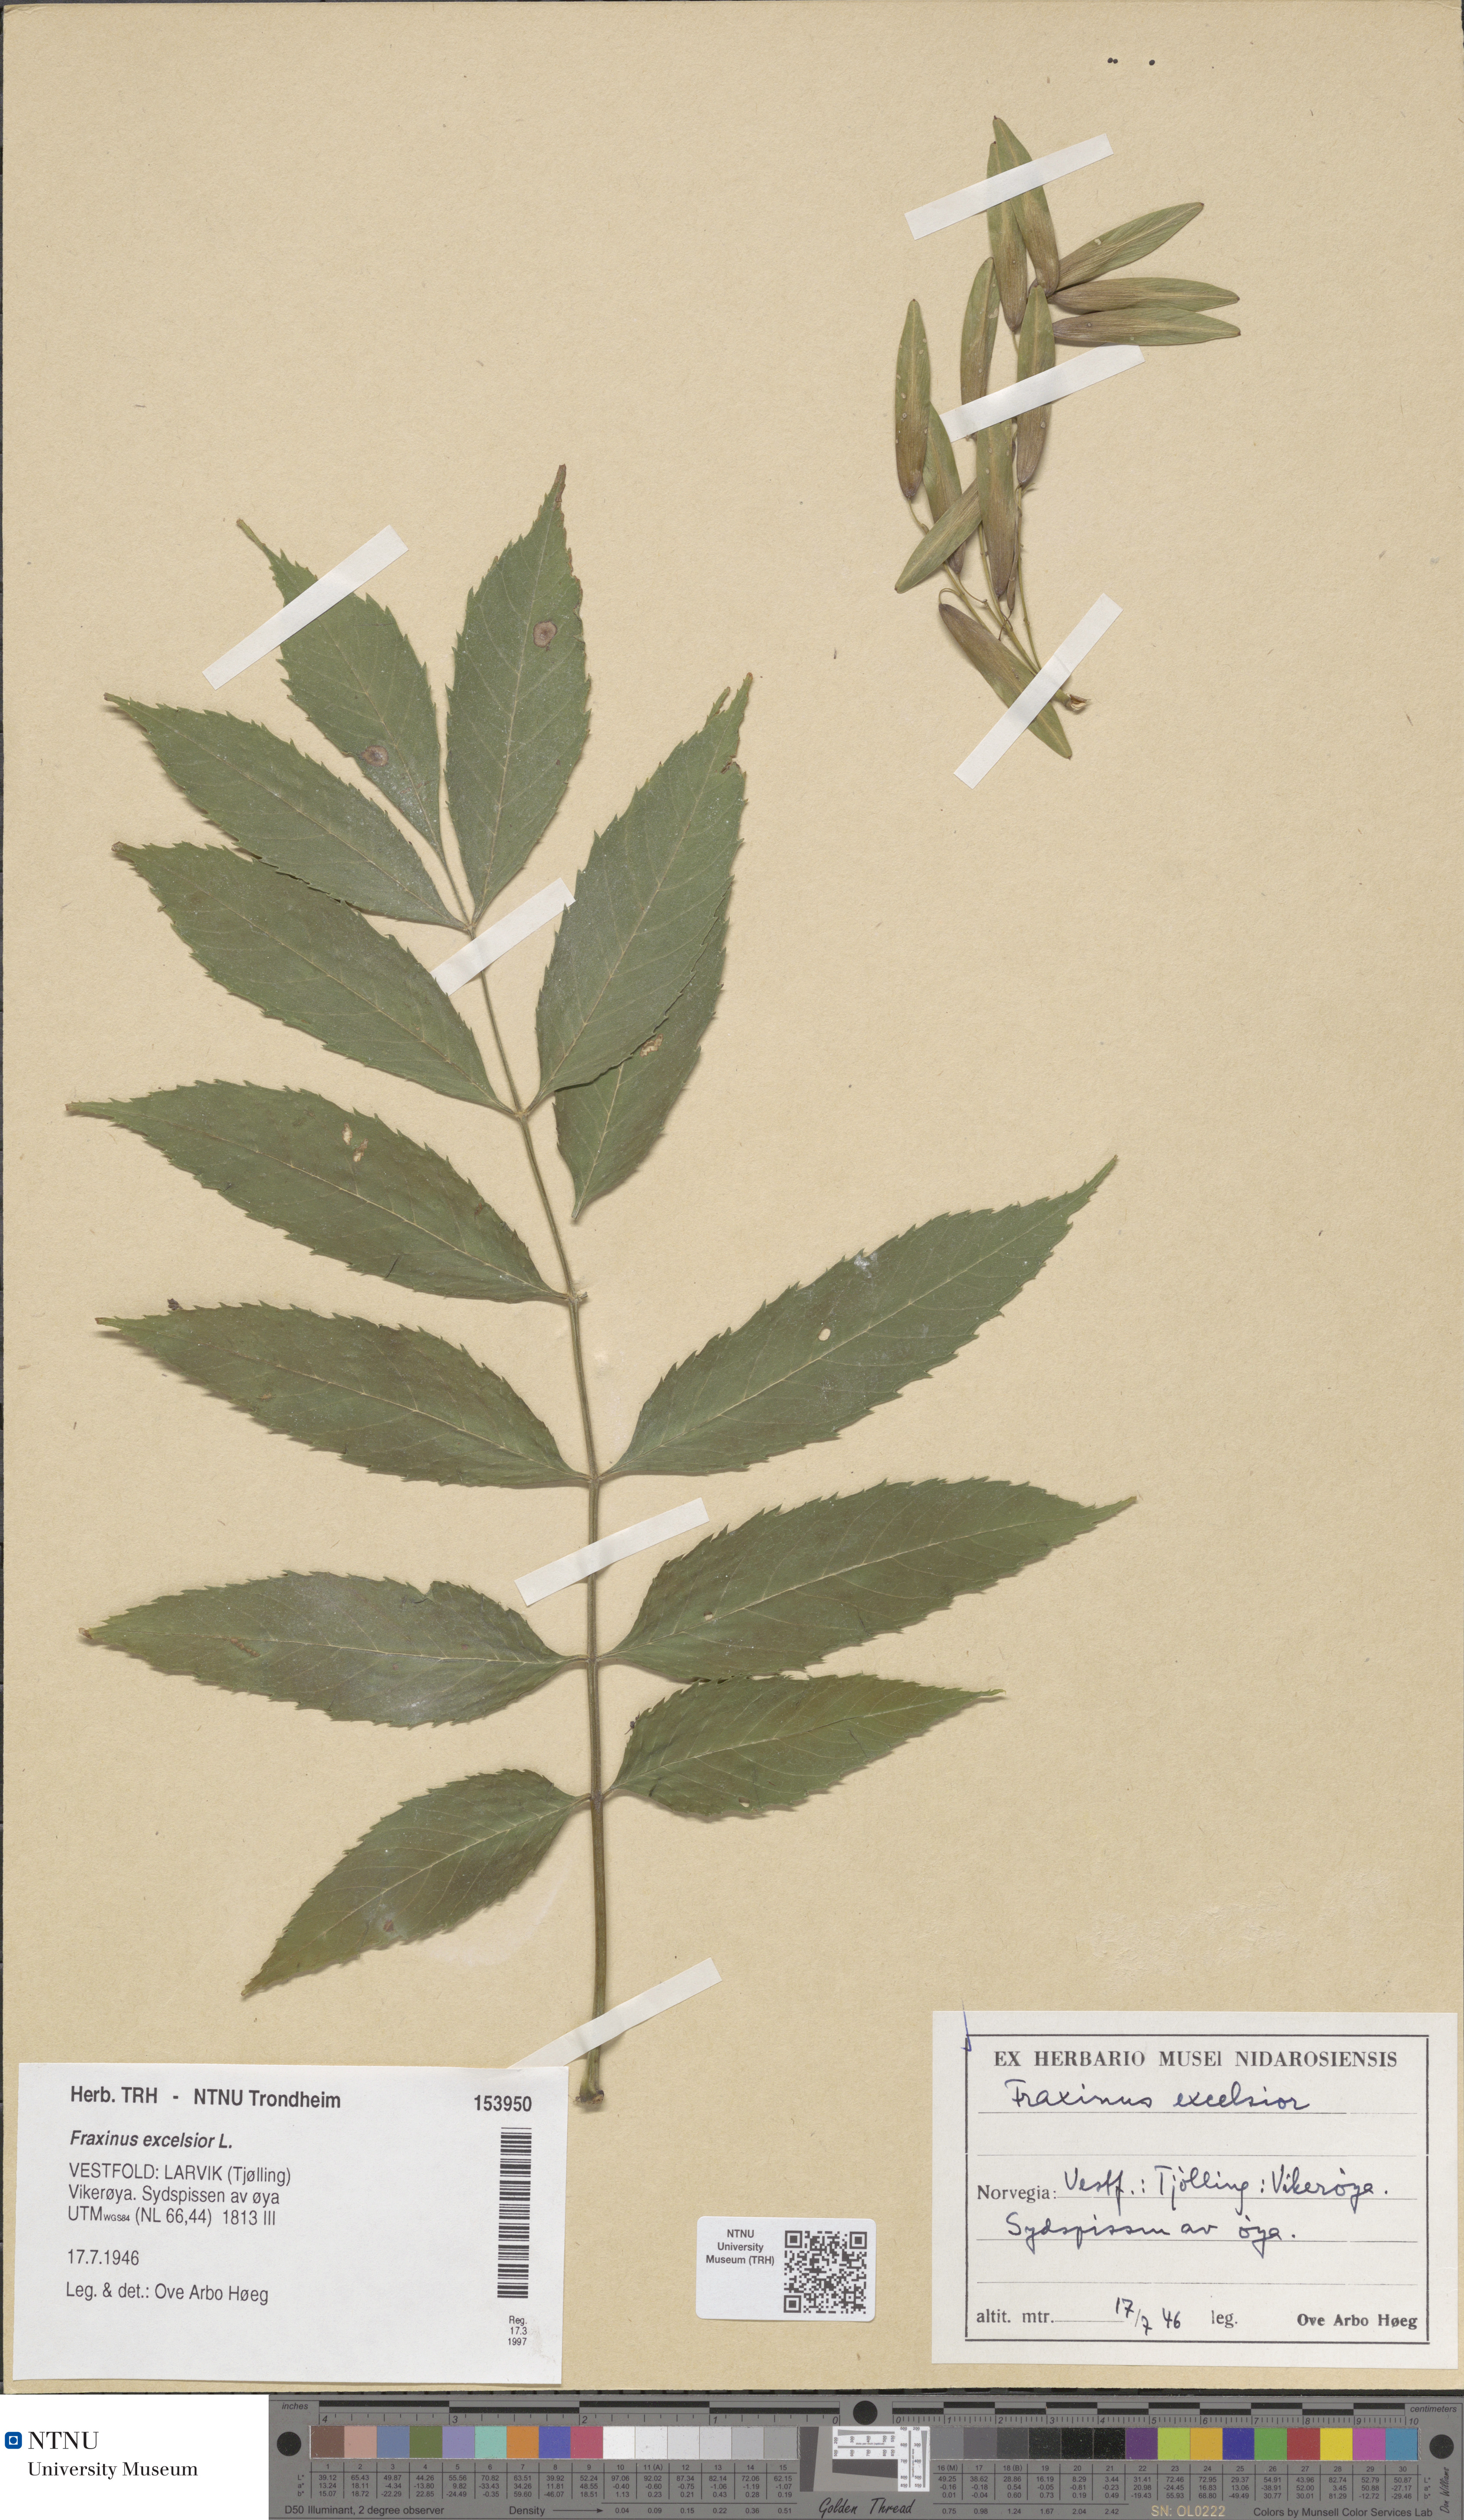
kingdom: Plantae
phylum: Tracheophyta
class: Magnoliopsida
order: Lamiales
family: Oleaceae
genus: Fraxinus
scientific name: Fraxinus excelsior
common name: European ash
